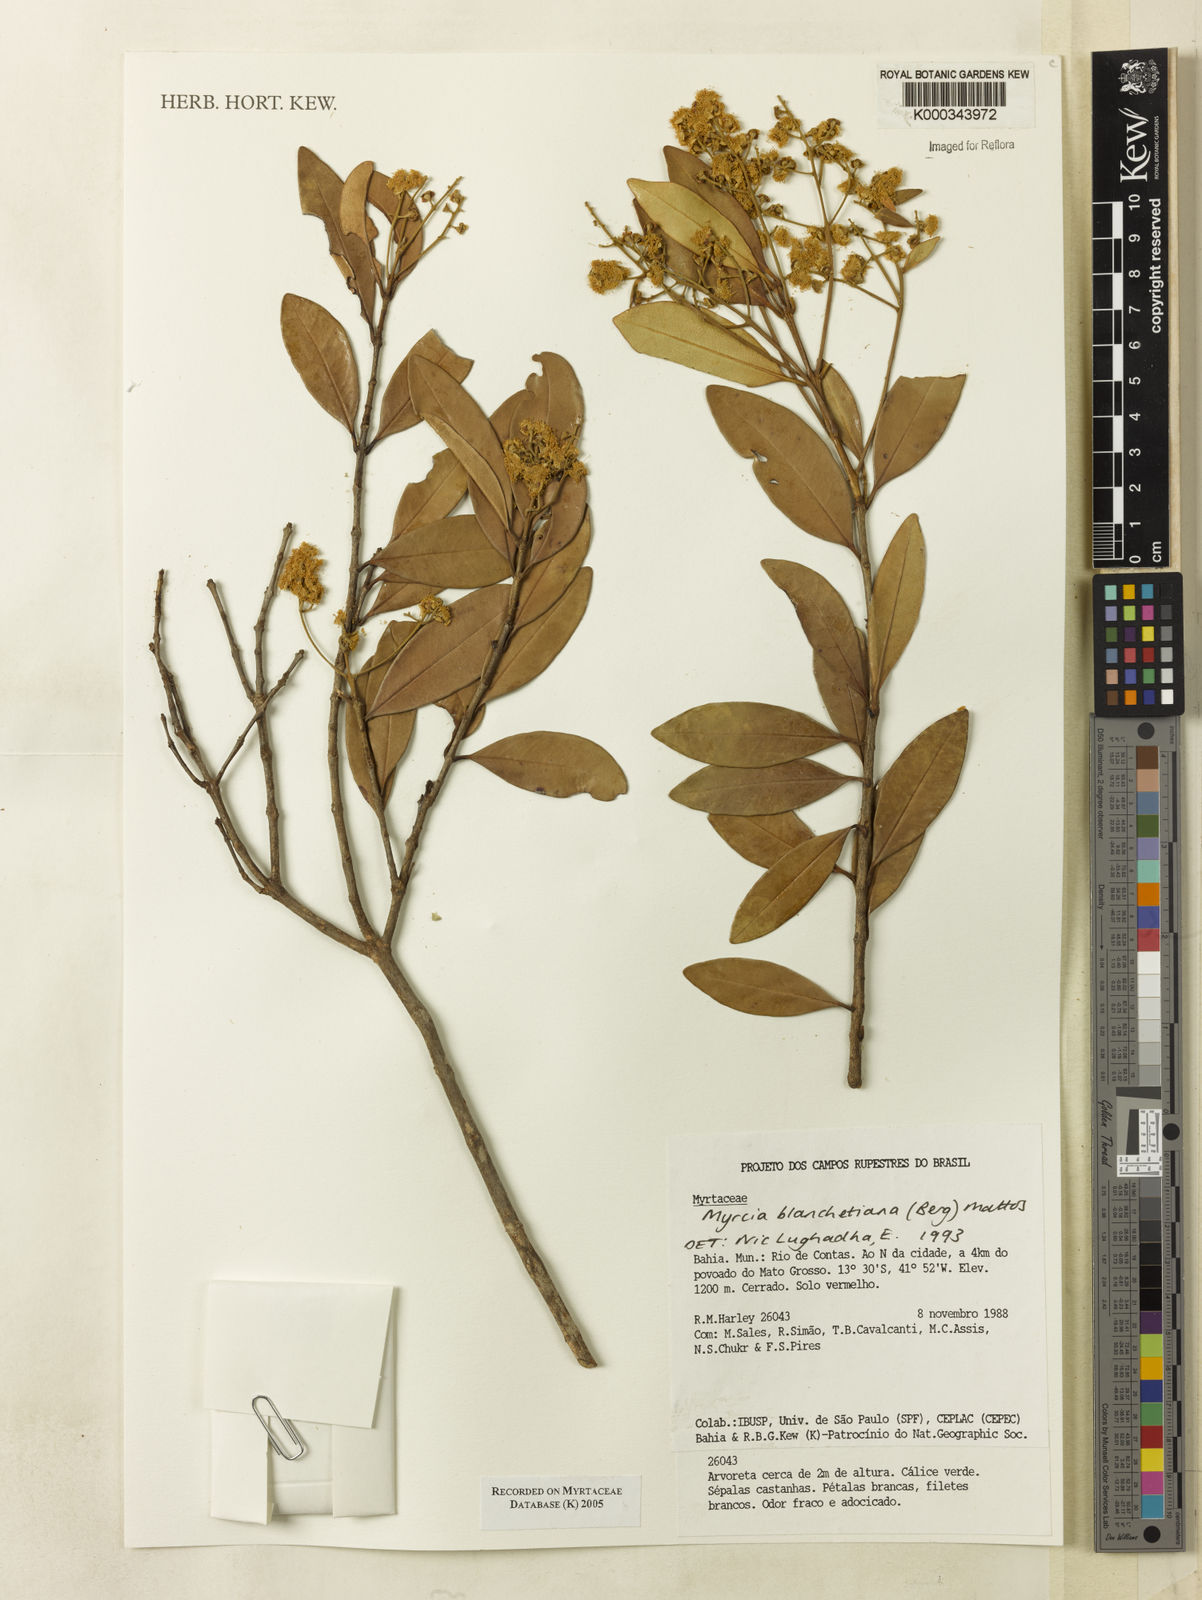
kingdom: Plantae
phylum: Tracheophyta
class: Magnoliopsida
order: Myrtales
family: Myrtaceae
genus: Myrcia
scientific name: Myrcia blanchetiana
